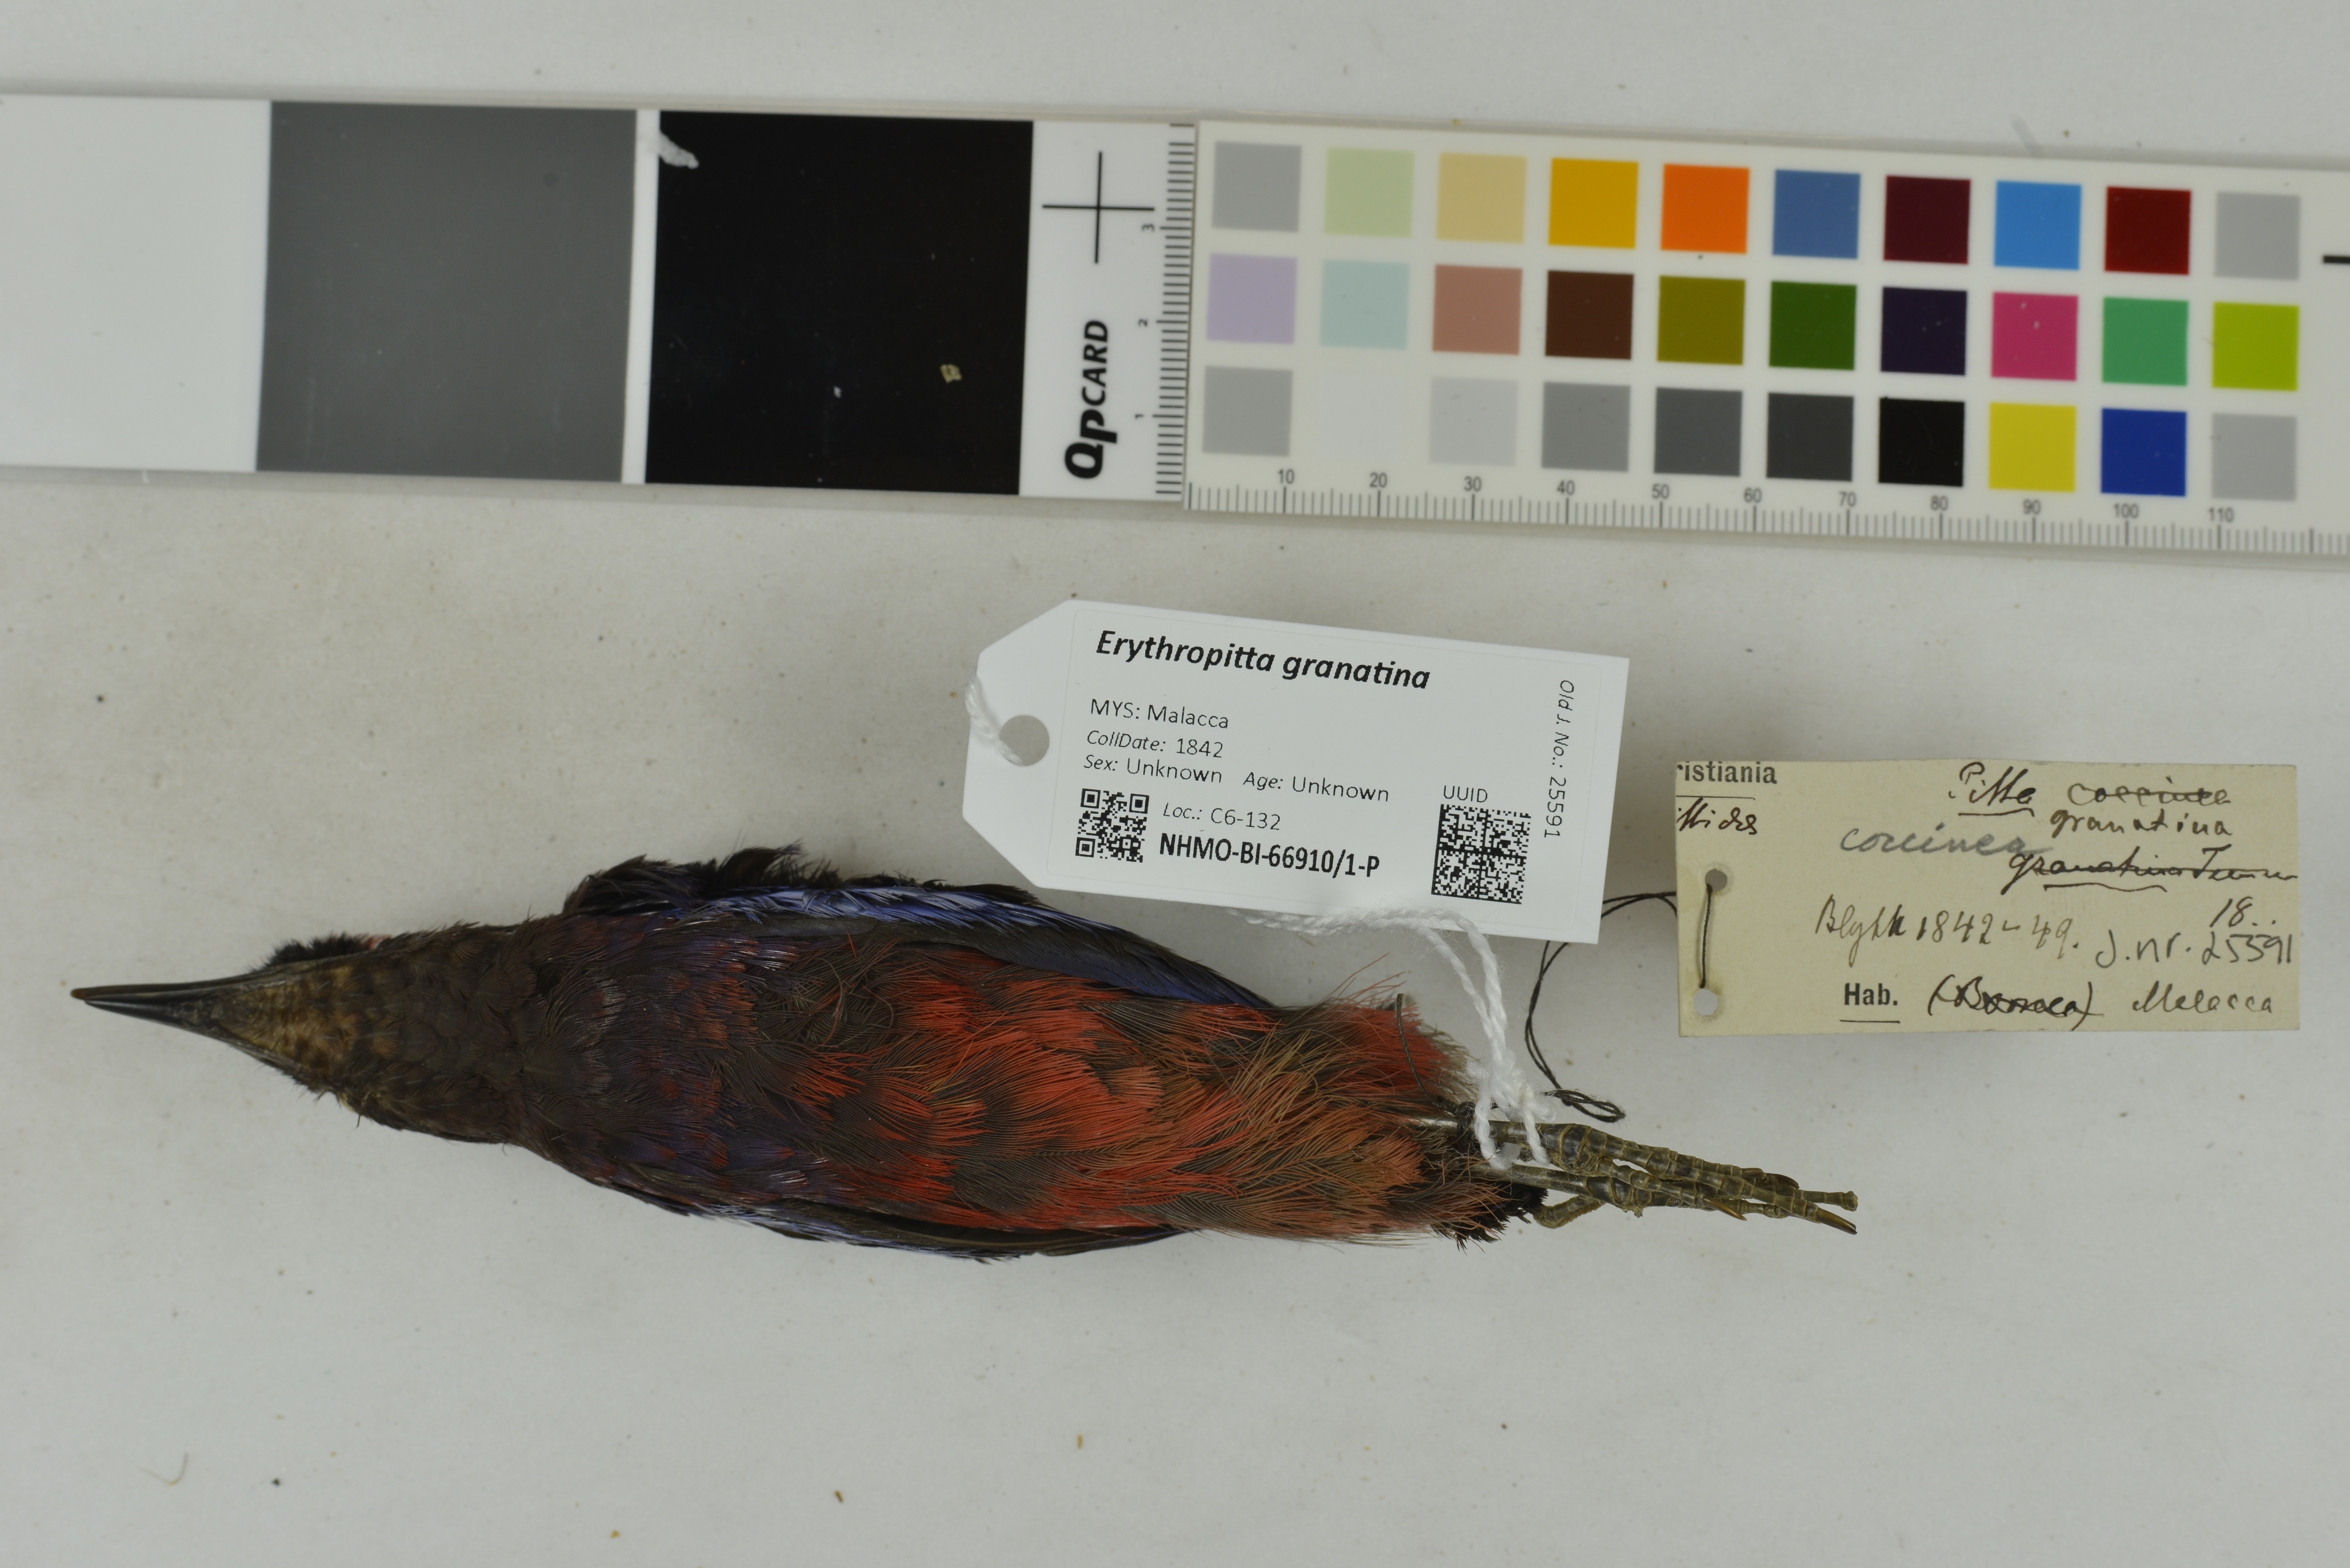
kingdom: Animalia
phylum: Chordata
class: Aves
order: Passeriformes
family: Pittidae
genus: Pitta
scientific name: Pitta granatina
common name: Garnet pitta
